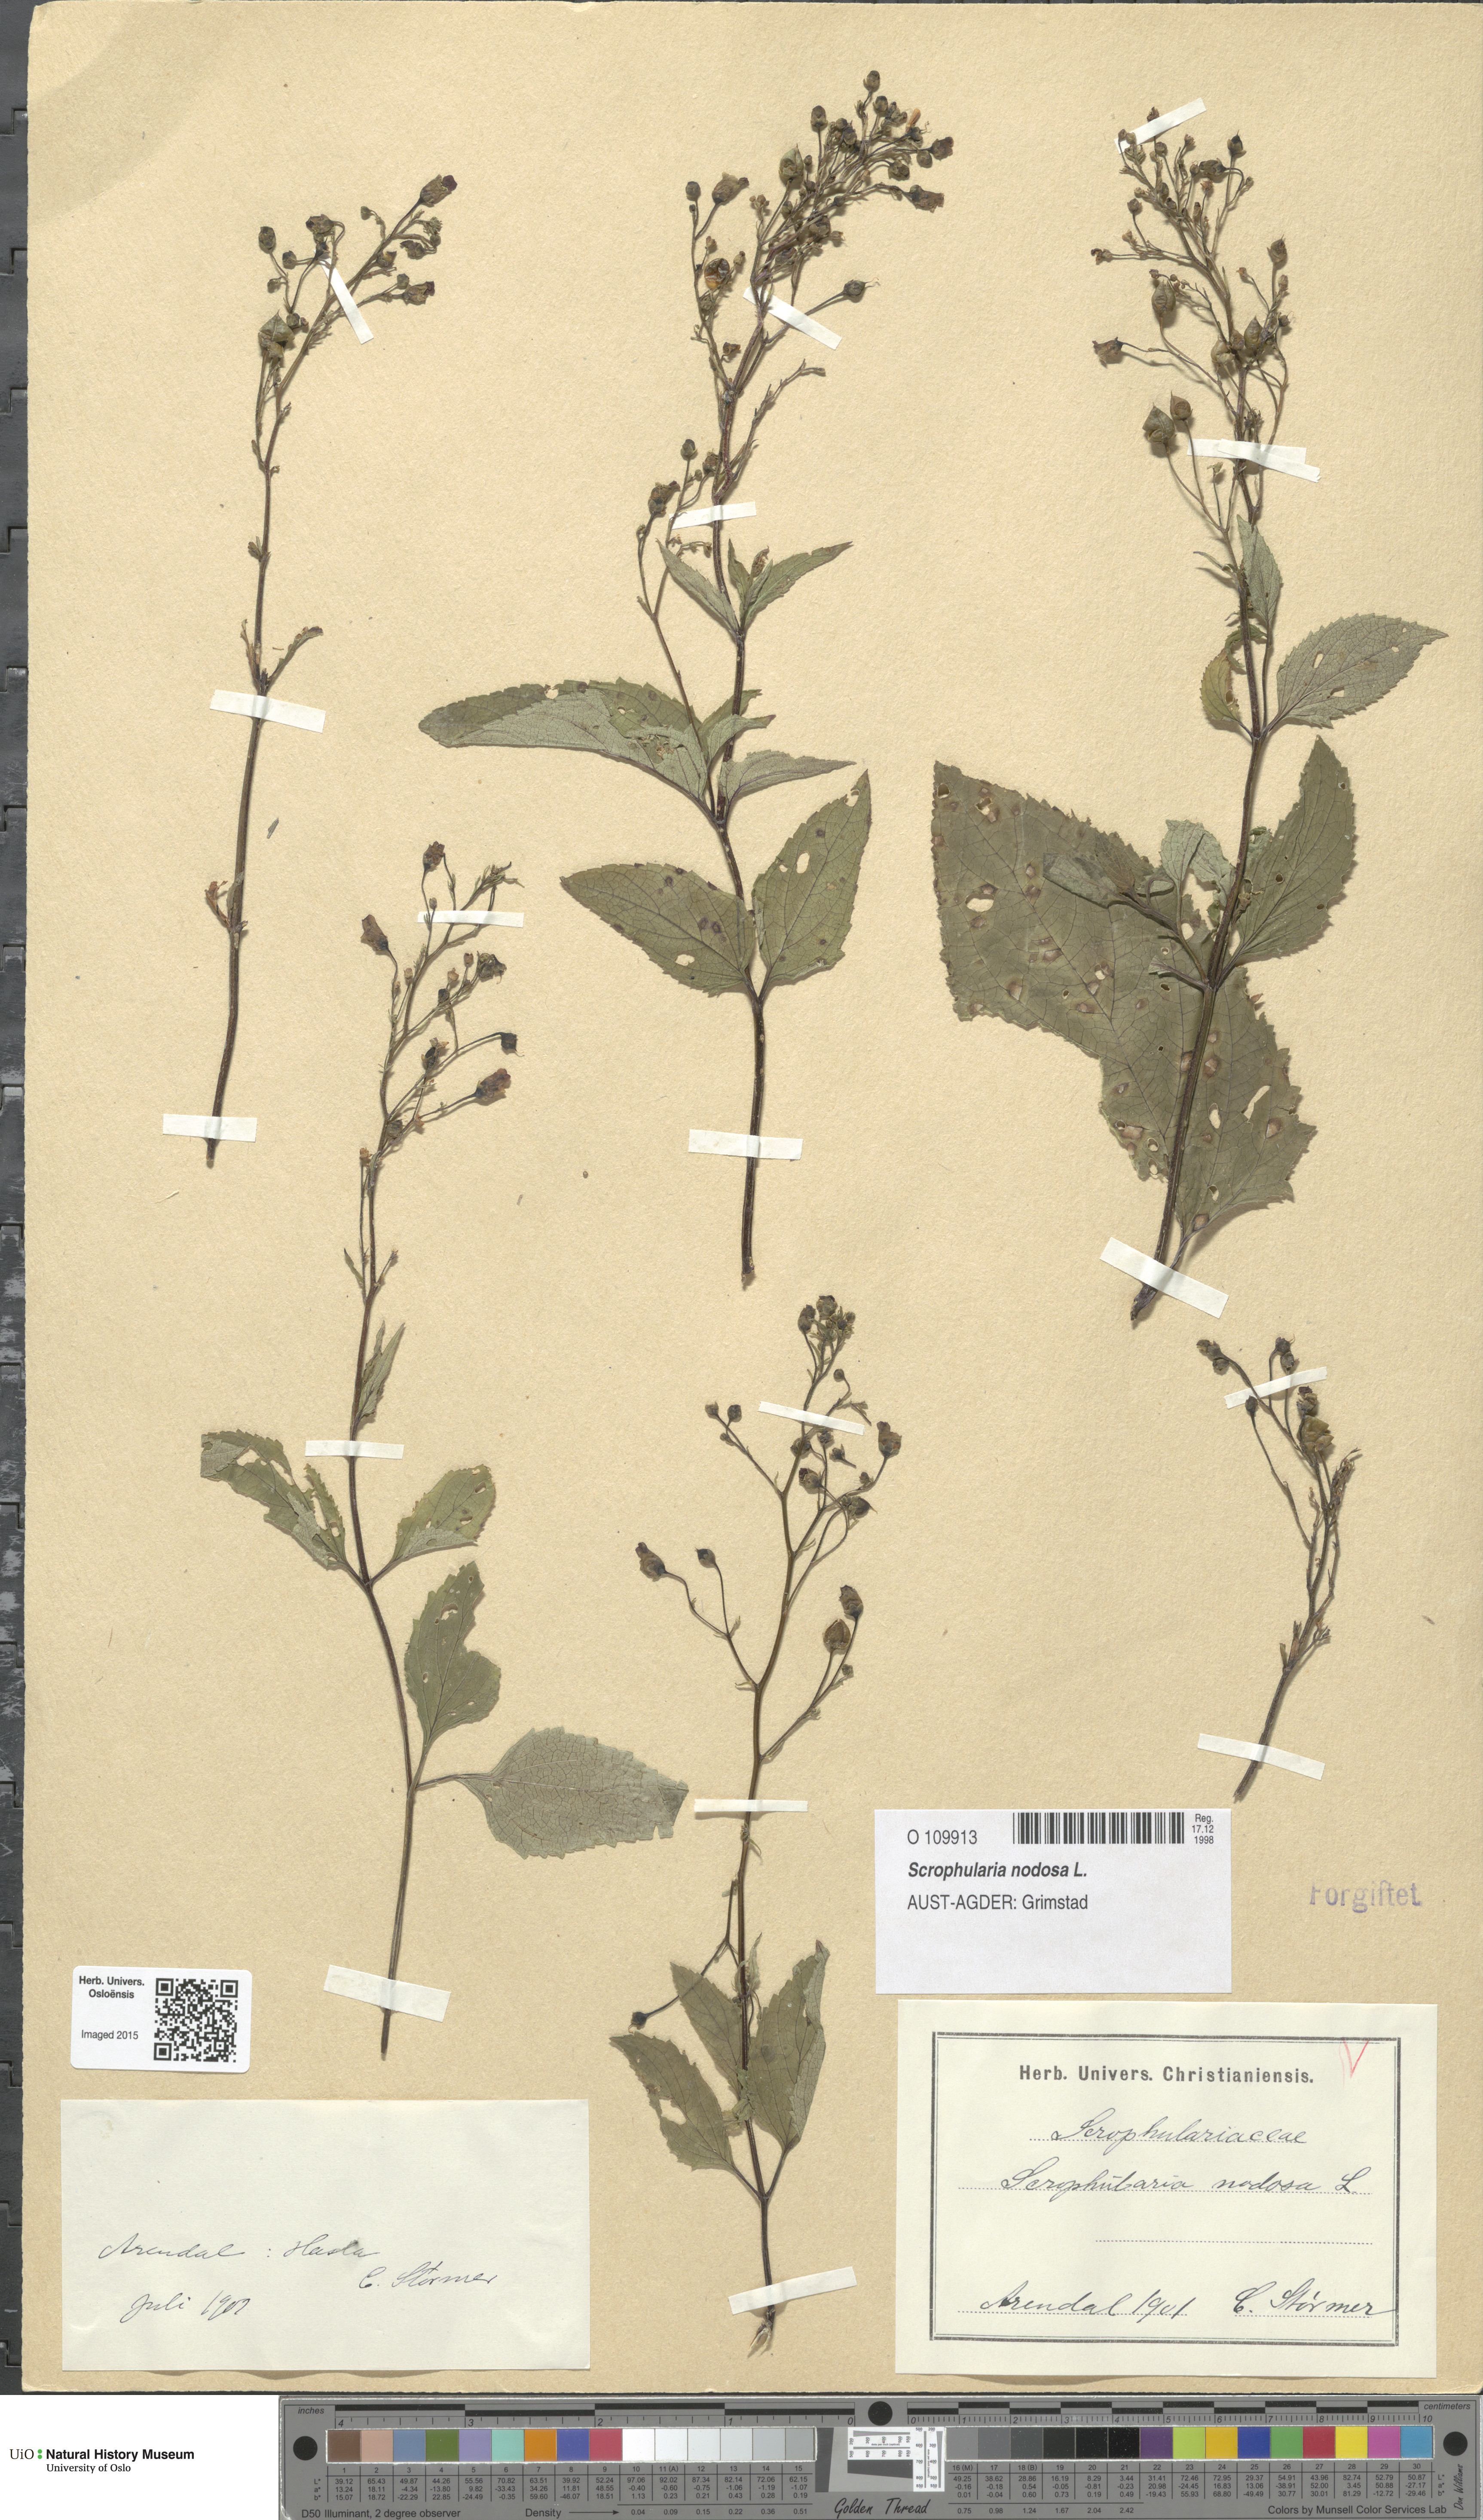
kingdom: Plantae
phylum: Tracheophyta
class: Magnoliopsida
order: Lamiales
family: Scrophulariaceae
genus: Scrophularia
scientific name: Scrophularia nodosa
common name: Common figwort
